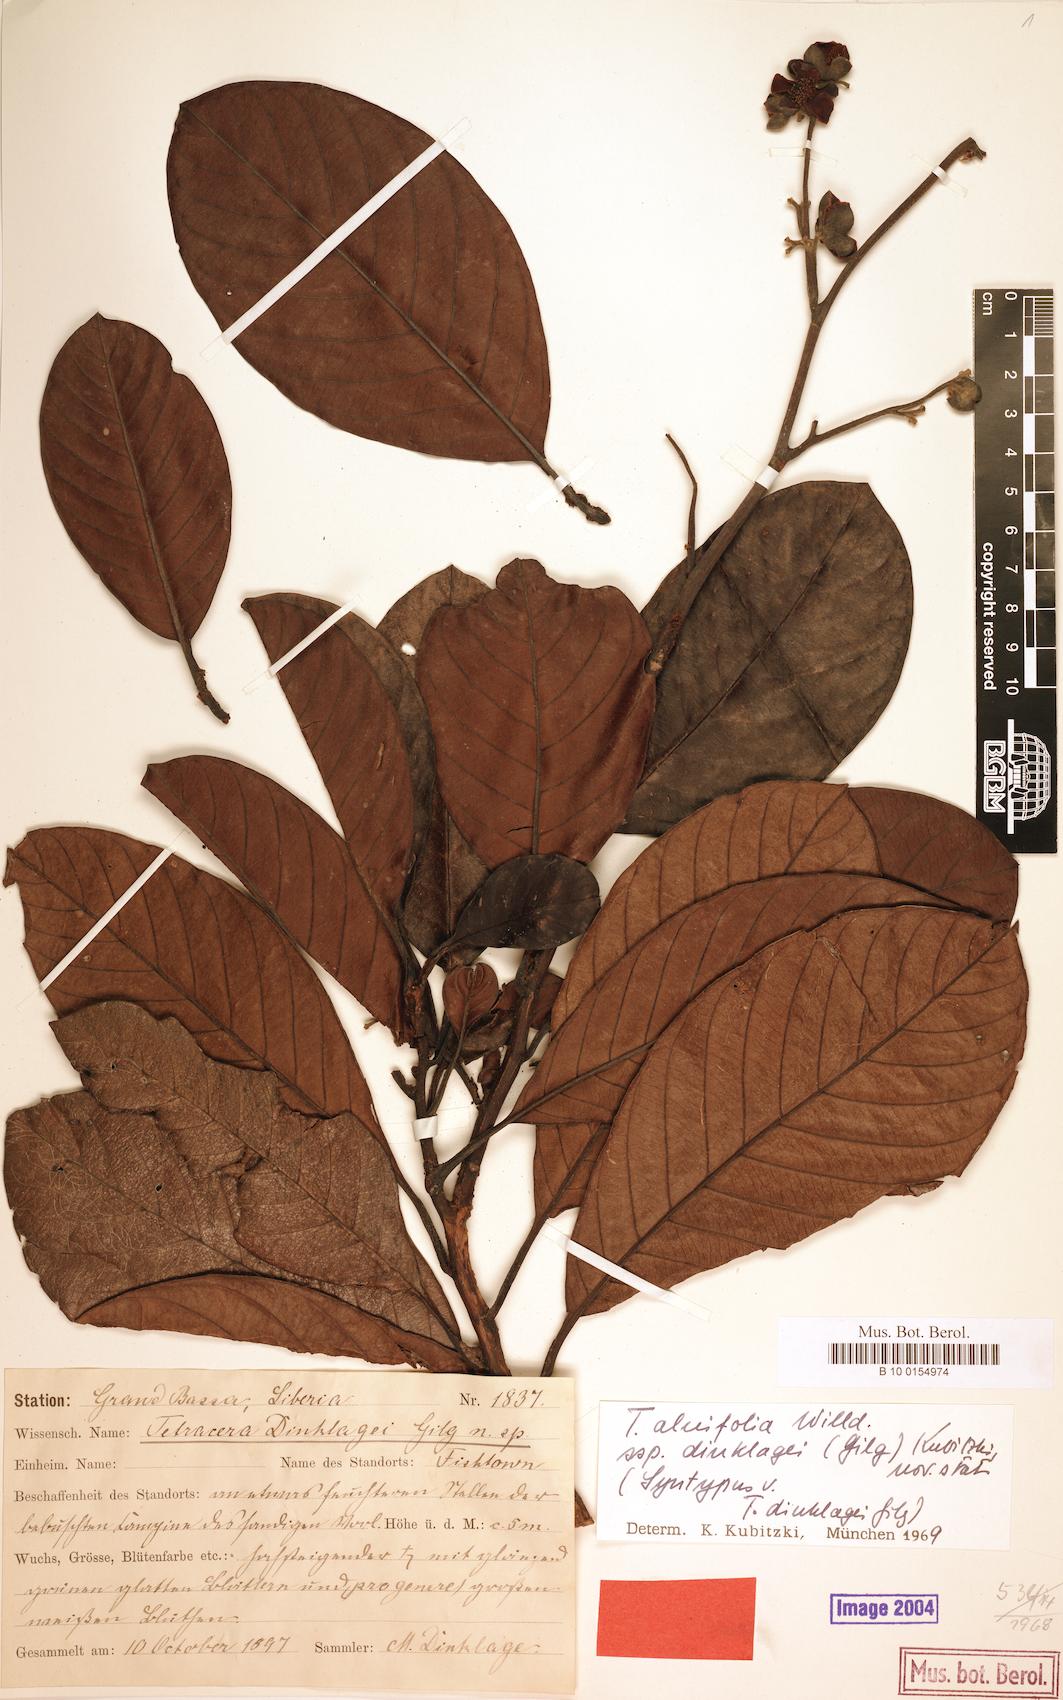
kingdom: Plantae
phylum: Tracheophyta
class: Magnoliopsida
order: Dilleniales
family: Dilleniaceae
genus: Tetracera
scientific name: Tetracera alnifolia
